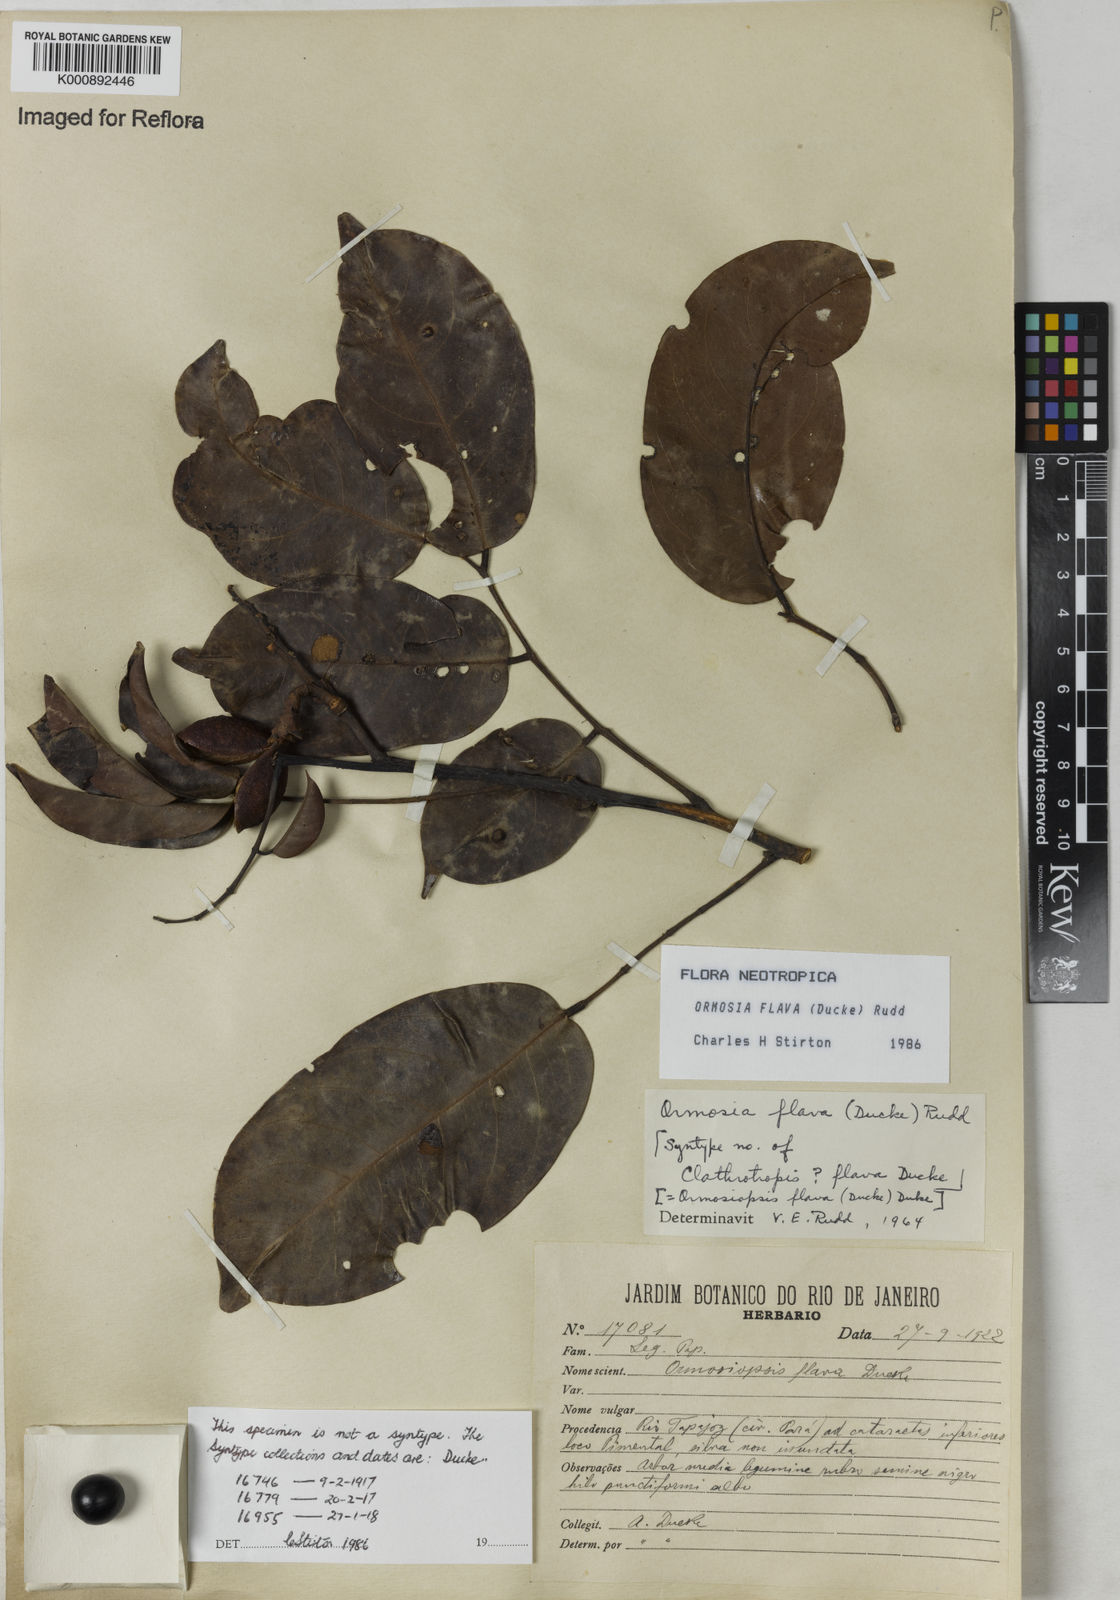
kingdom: Plantae
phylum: Tracheophyta
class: Magnoliopsida
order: Fabales
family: Fabaceae
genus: Ormosia
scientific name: Ormosia flava
